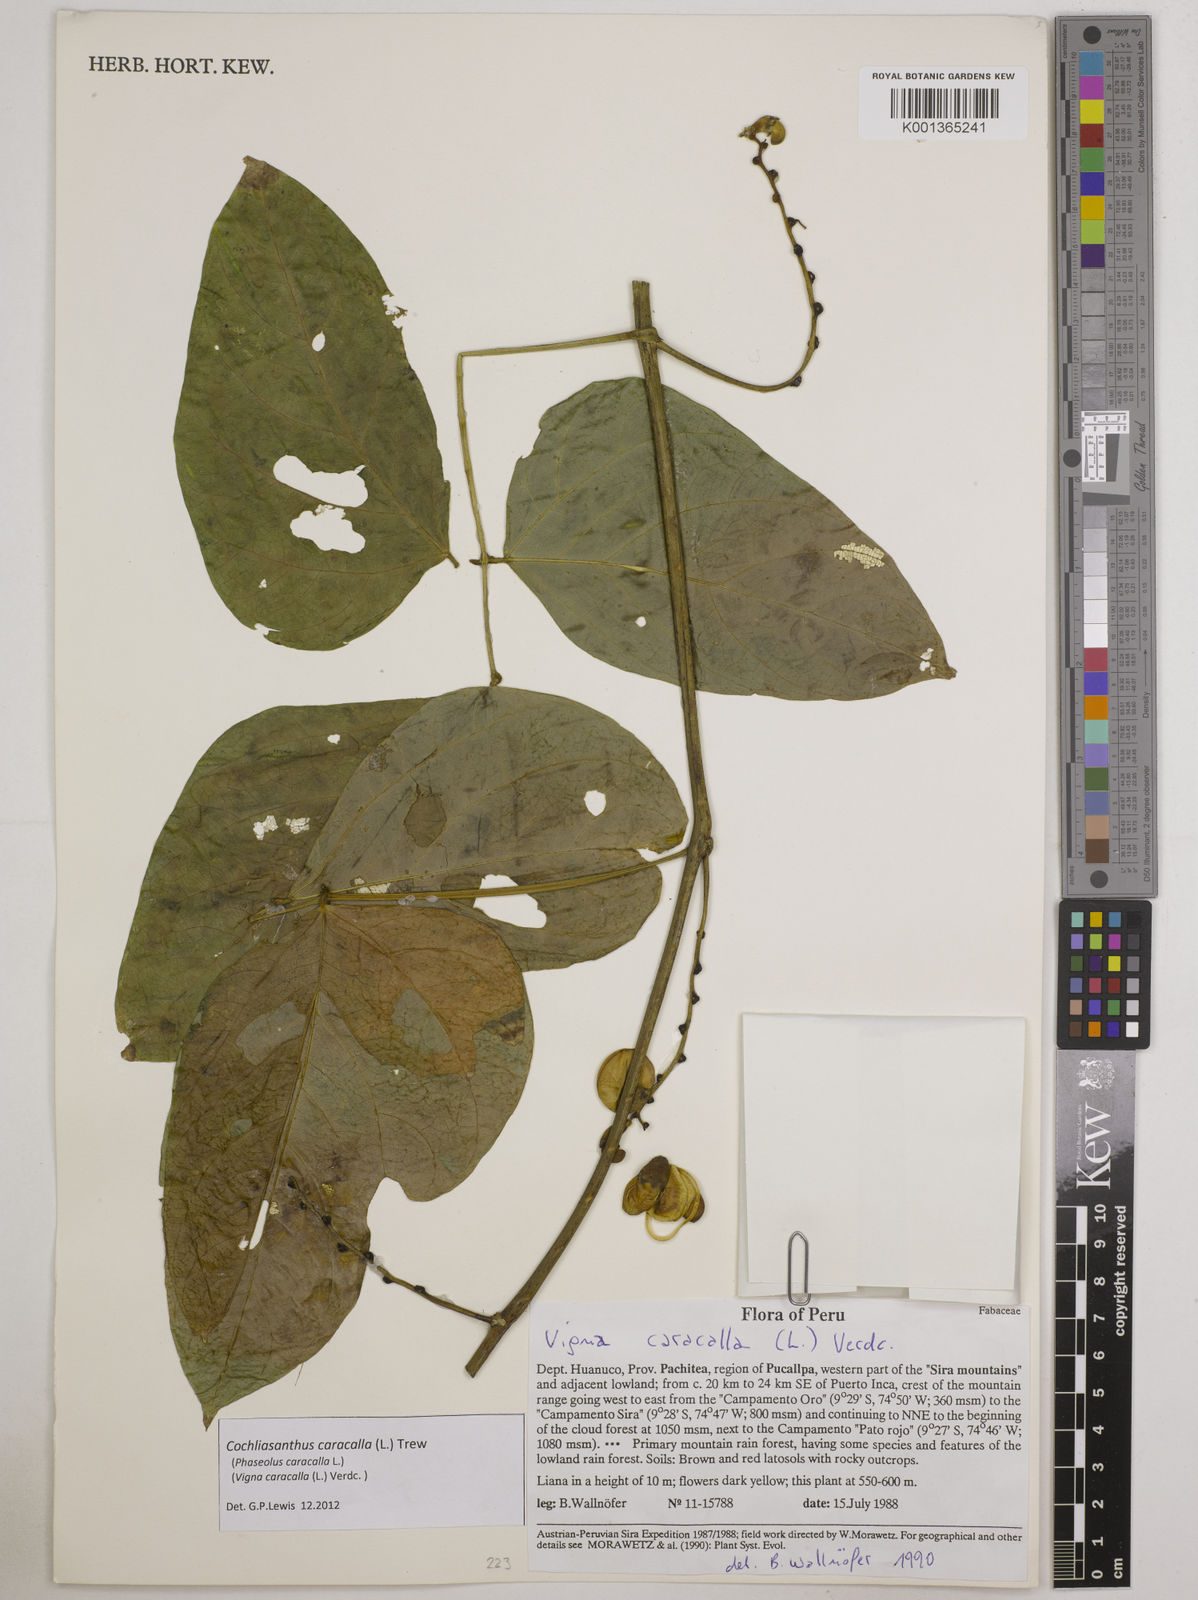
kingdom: Plantae
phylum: Tracheophyta
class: Magnoliopsida
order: Fabales
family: Fabaceae
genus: Cochliasanthus
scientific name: Cochliasanthus caracalla
